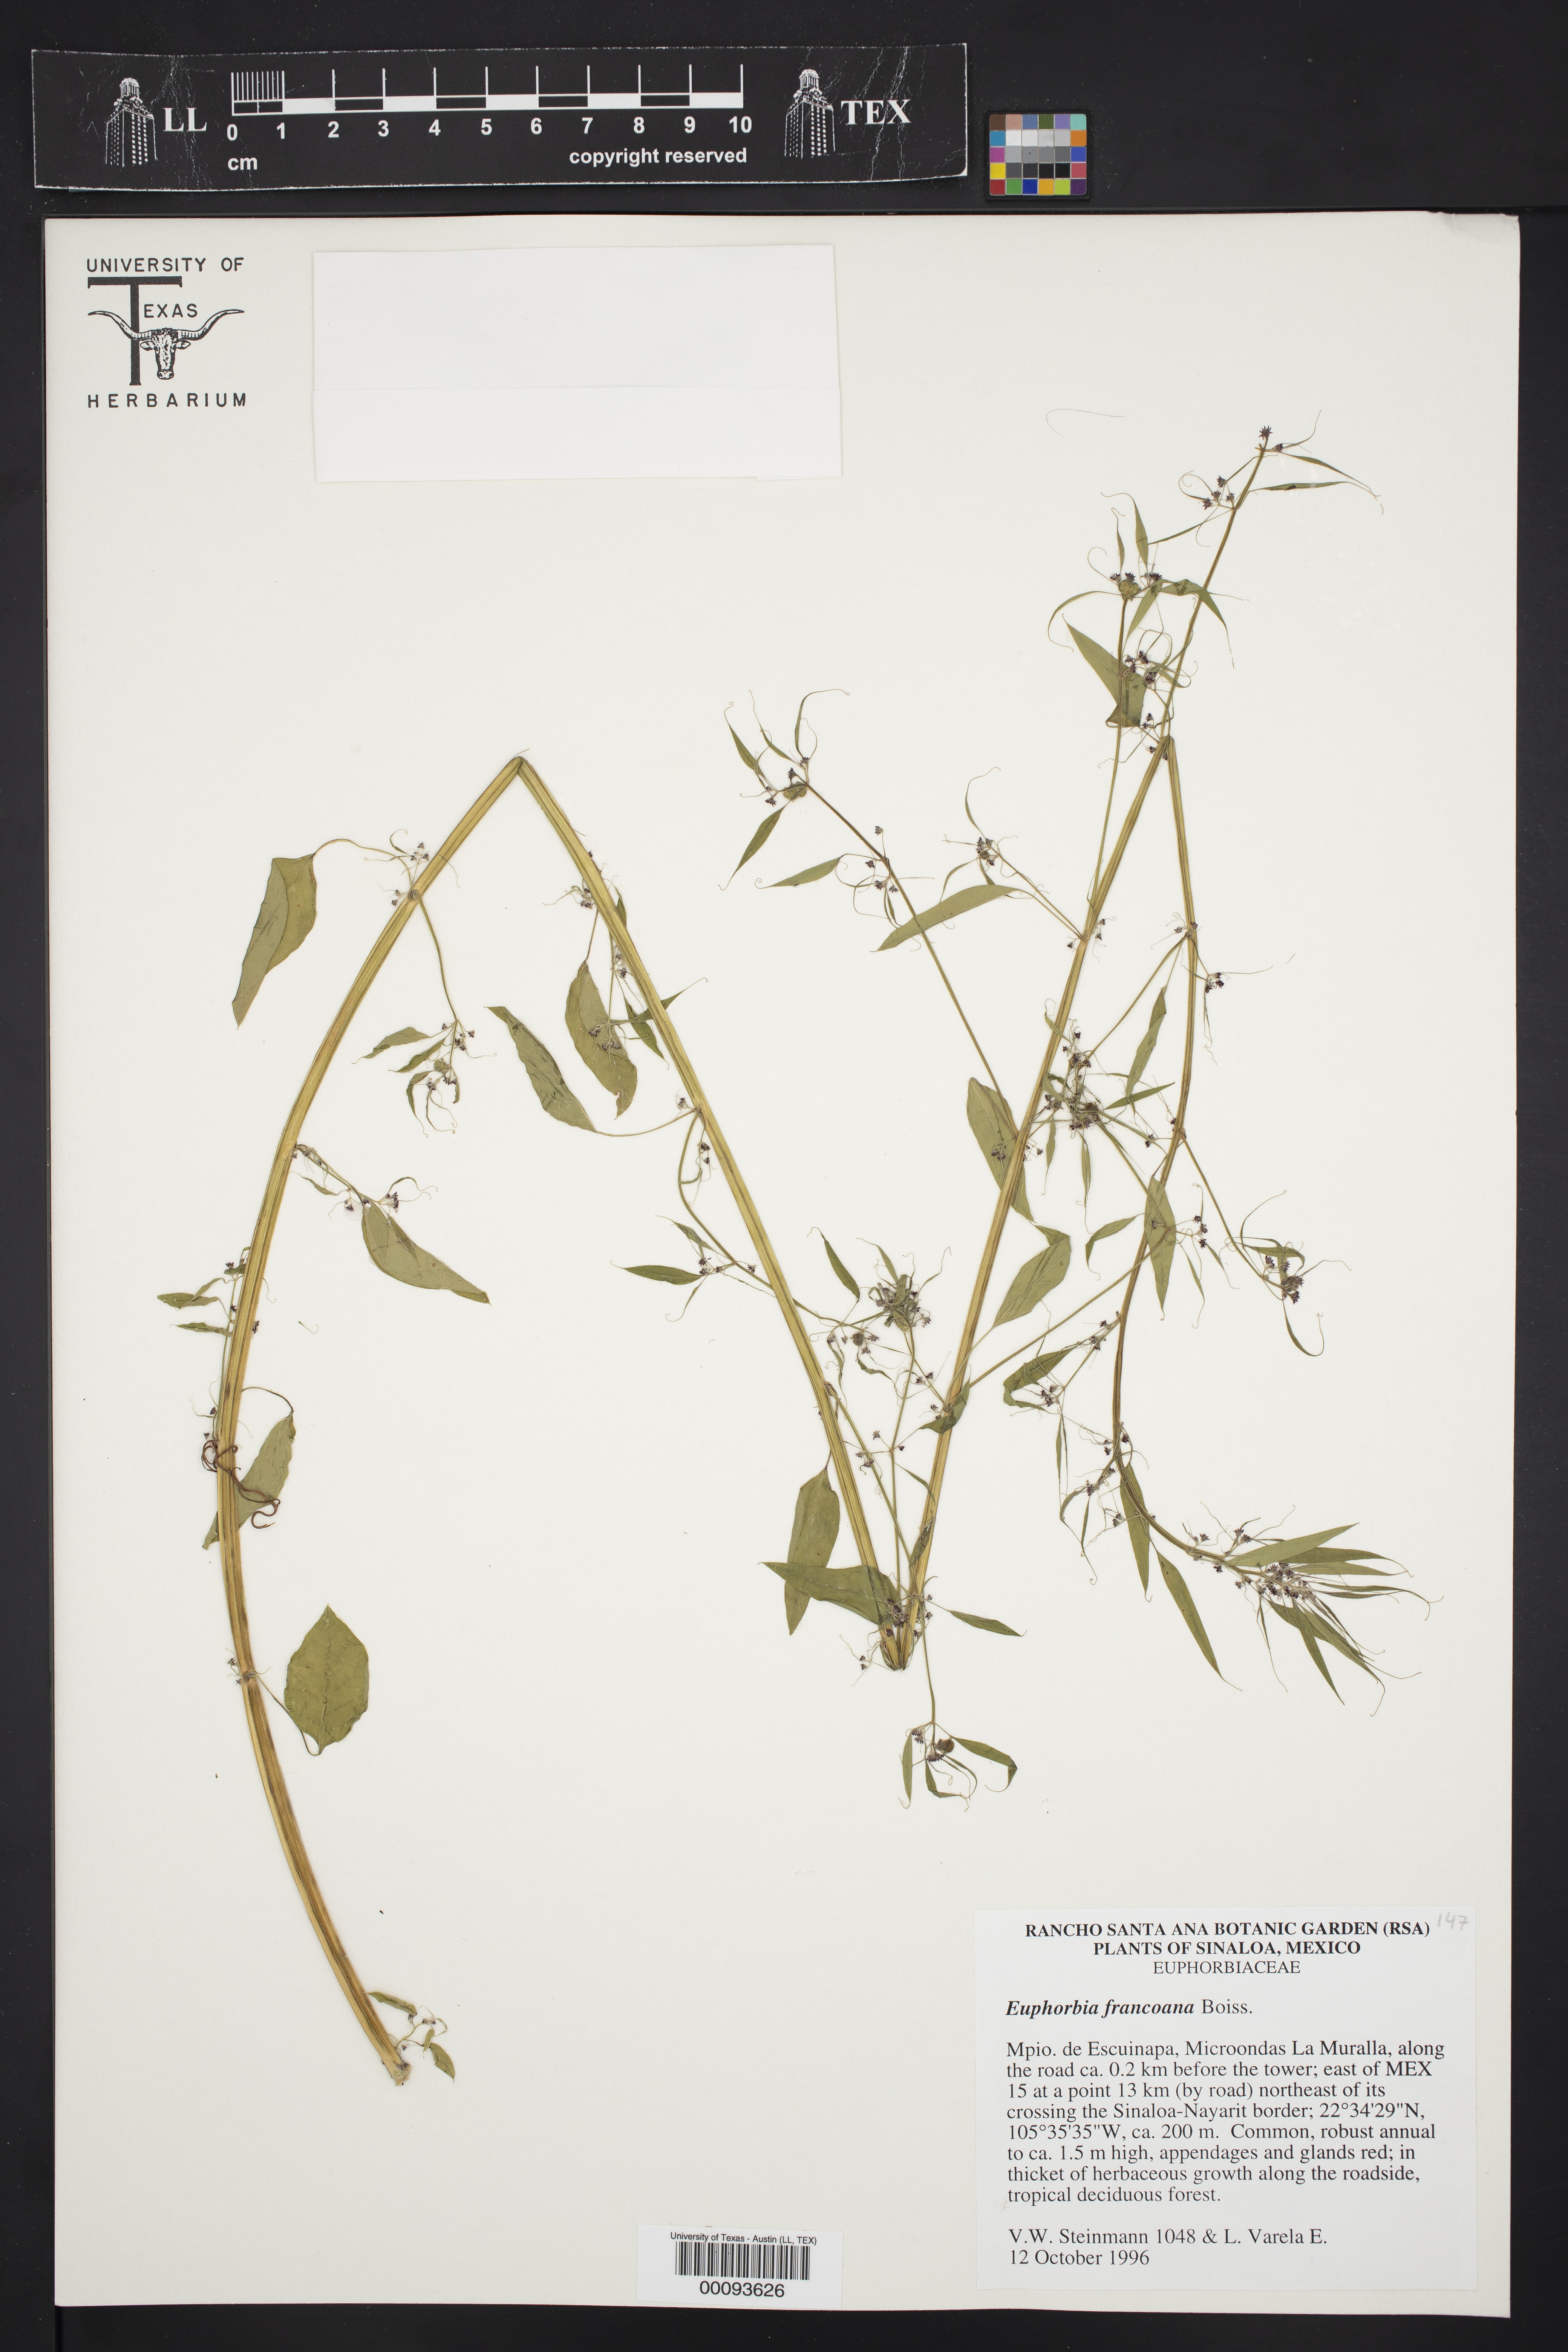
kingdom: Plantae
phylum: Tracheophyta
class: Magnoliopsida
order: Malpighiales
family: Euphorbiaceae
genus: Euphorbia
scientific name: Euphorbia francoana
